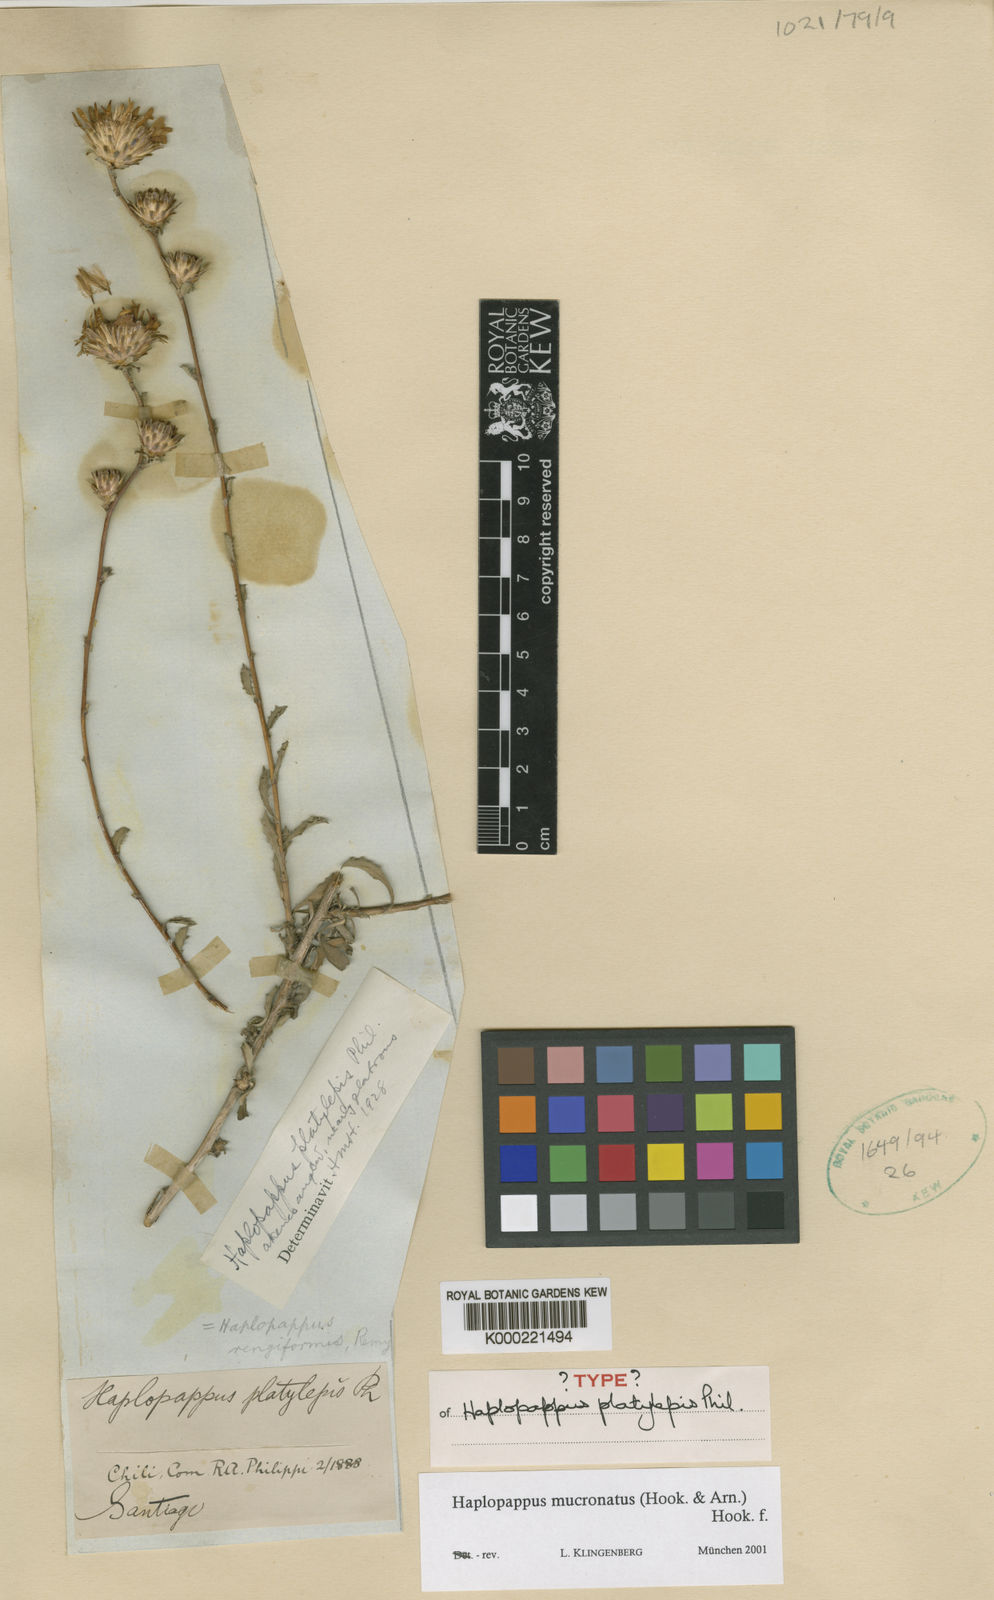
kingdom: Plantae
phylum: Tracheophyta
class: Magnoliopsida
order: Asterales
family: Asteraceae
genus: Haplopappus
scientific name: Haplopappus mucronatus
